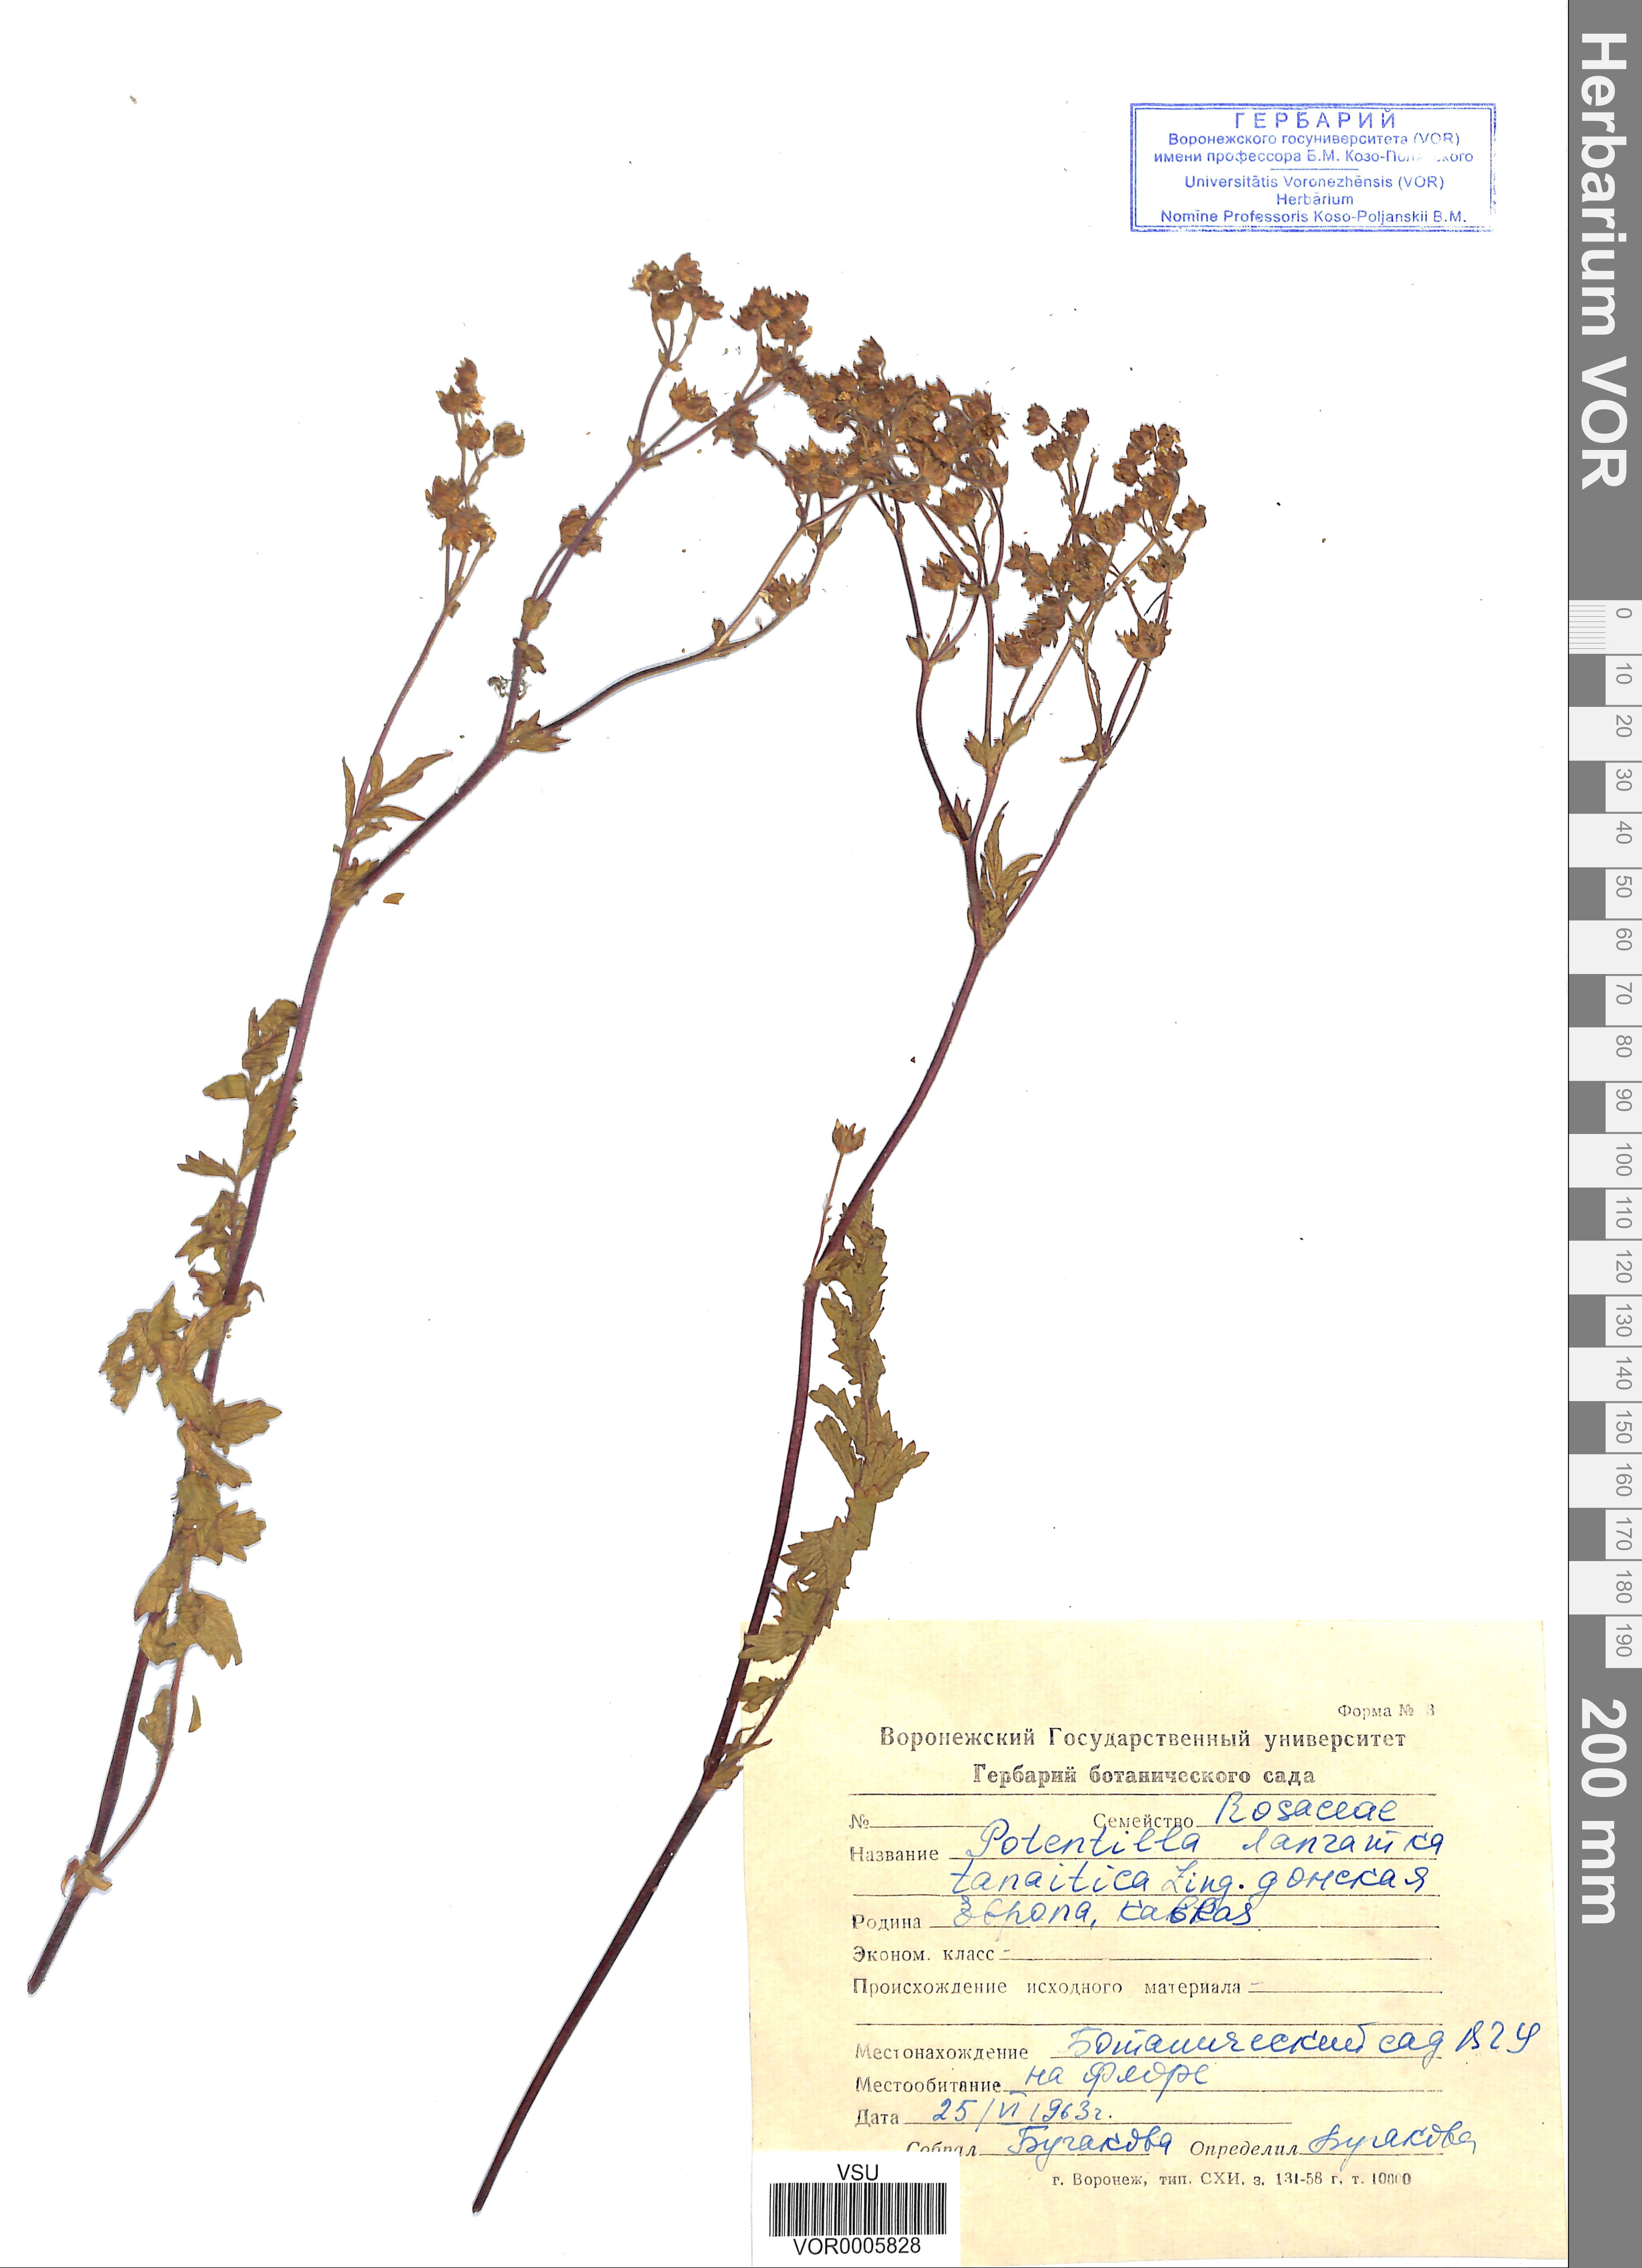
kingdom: Plantae
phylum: Tracheophyta
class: Magnoliopsida
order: Rosales
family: Rosaceae
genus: Potentilla
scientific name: Potentilla tanaitica
